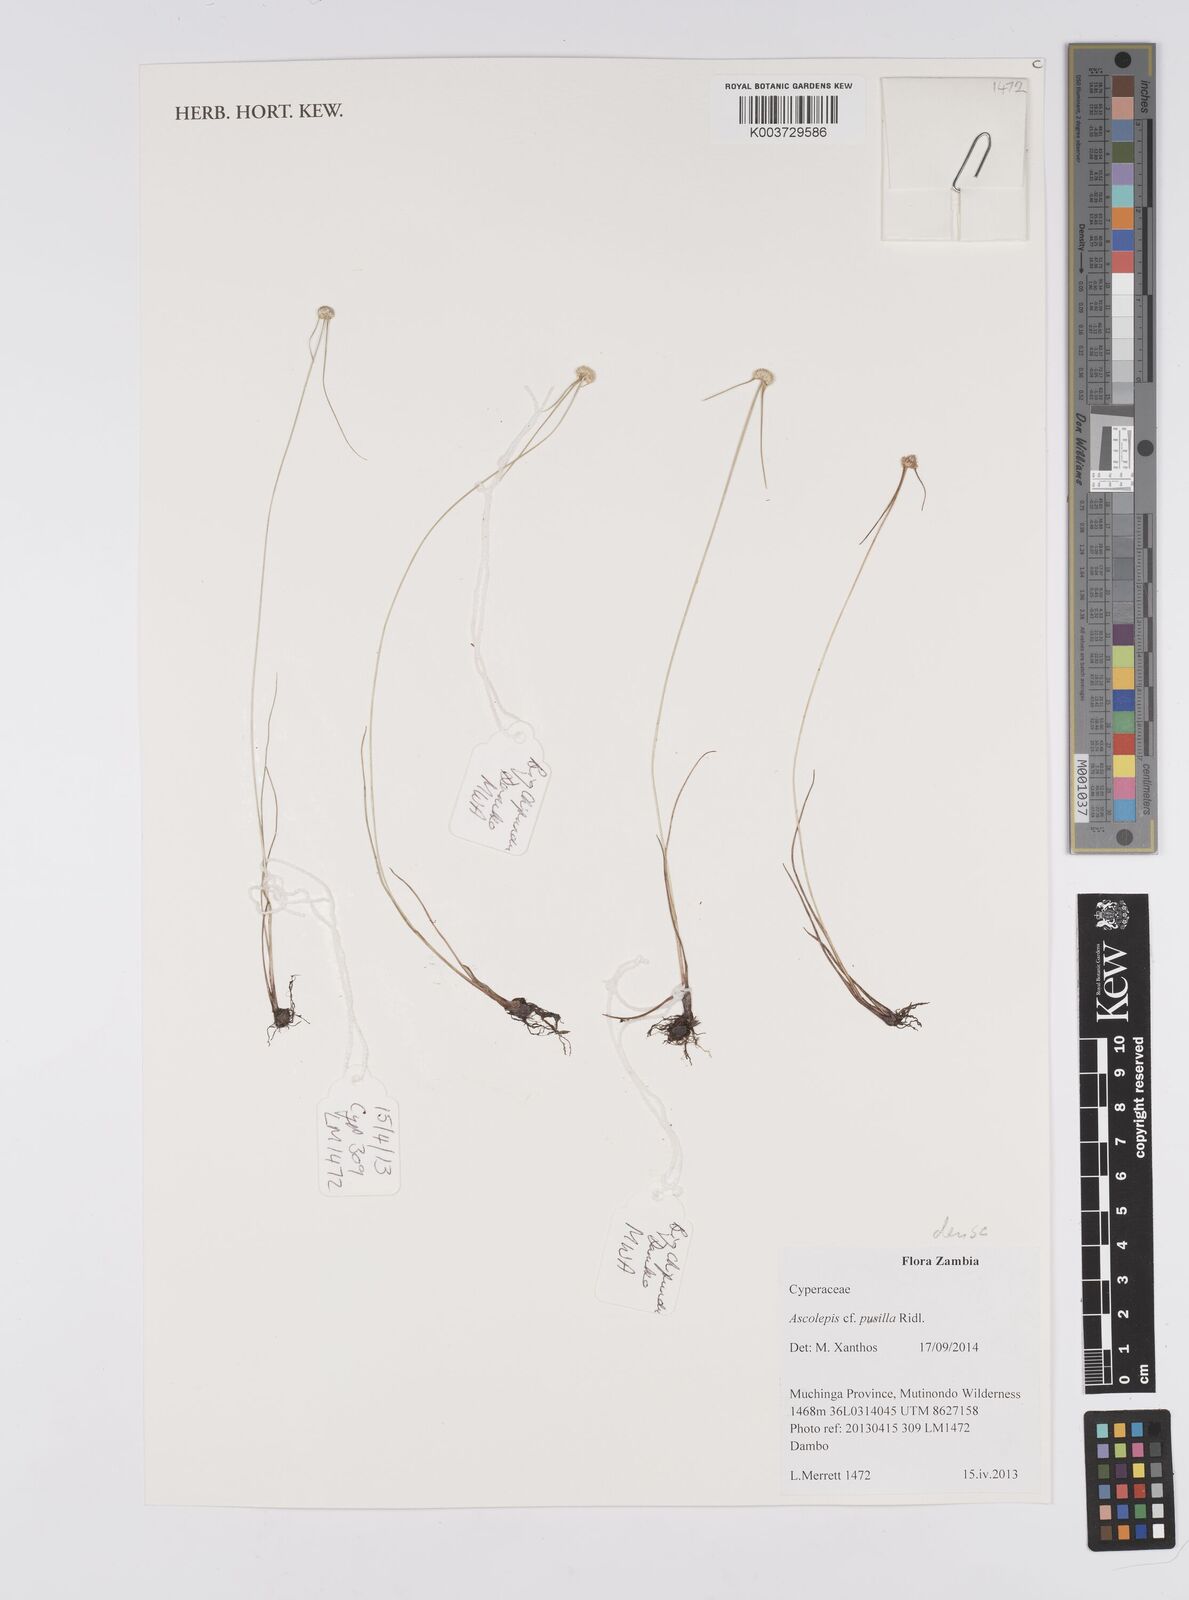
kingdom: Plantae
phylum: Tracheophyta
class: Liliopsida
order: Poales
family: Cyperaceae
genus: Cyperus
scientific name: Cyperus
